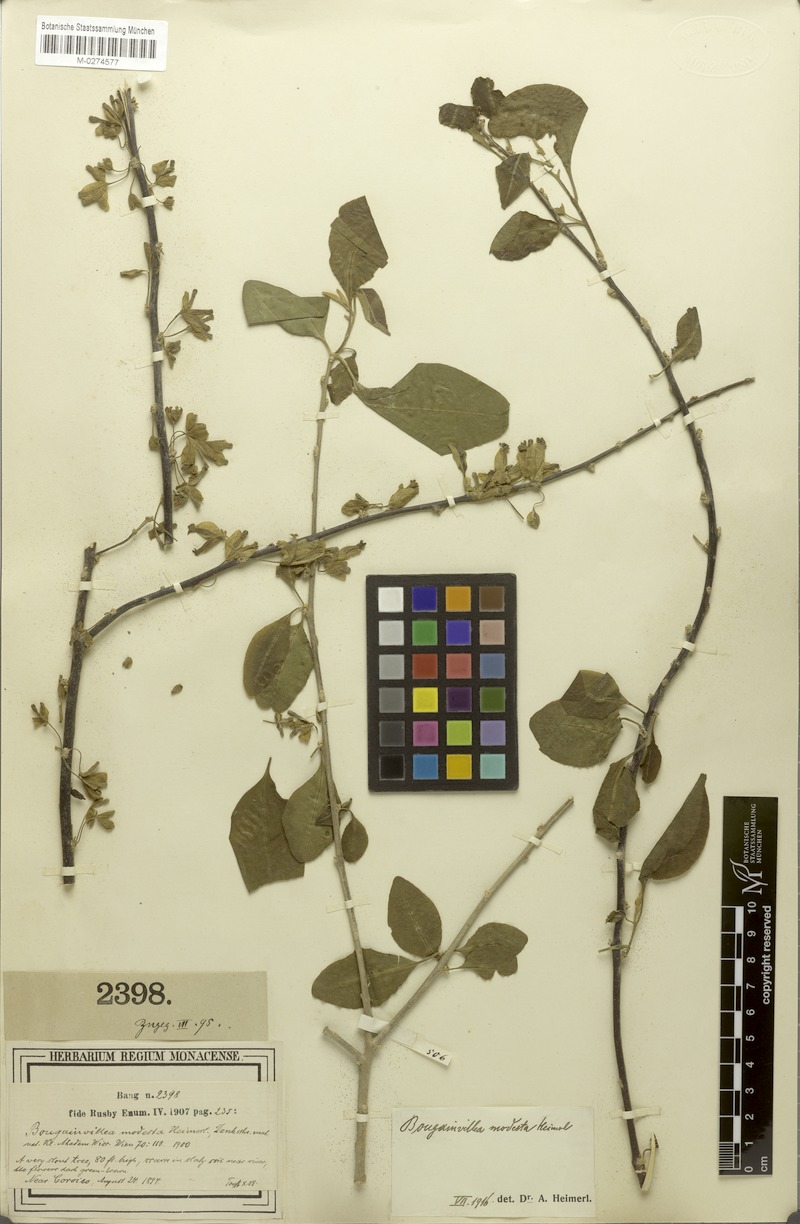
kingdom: Plantae
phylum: Tracheophyta
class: Magnoliopsida
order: Caryophyllales
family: Nyctaginaceae
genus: Bougainvillea
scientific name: Bougainvillea modesta
